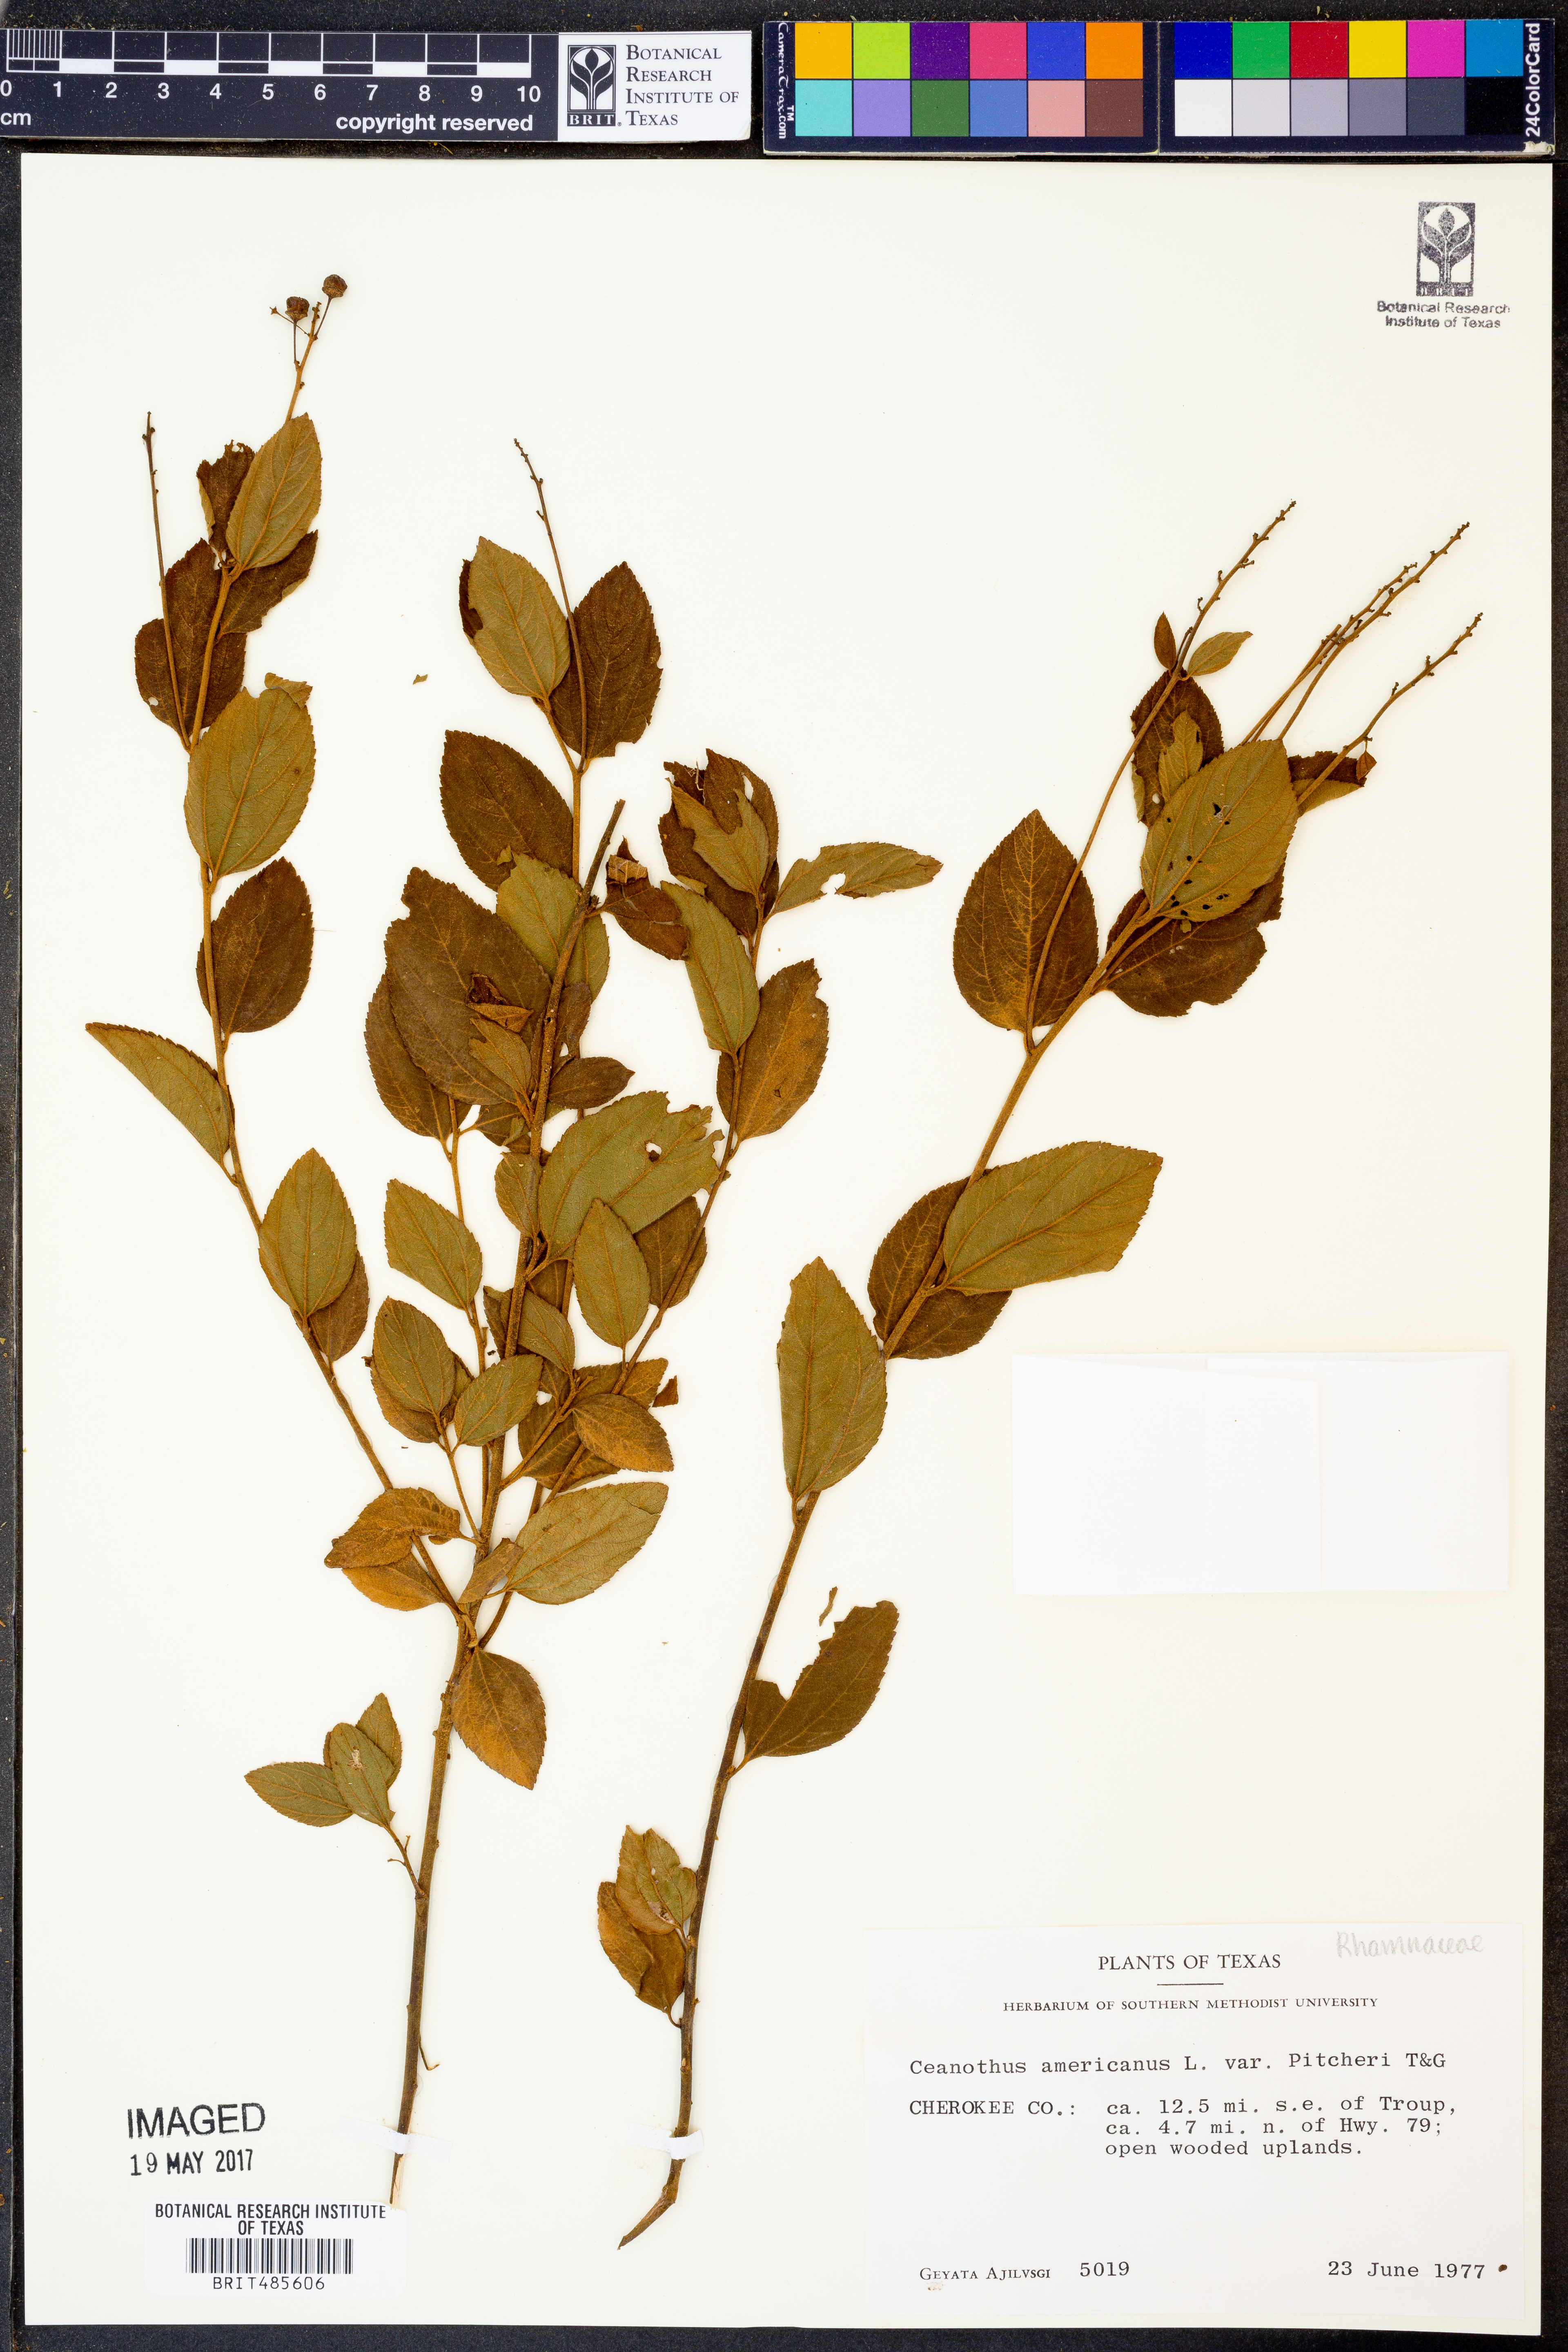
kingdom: Plantae
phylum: Tracheophyta
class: Magnoliopsida
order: Rosales
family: Rhamnaceae
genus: Ceanothus
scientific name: Ceanothus americanus
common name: Redroot
